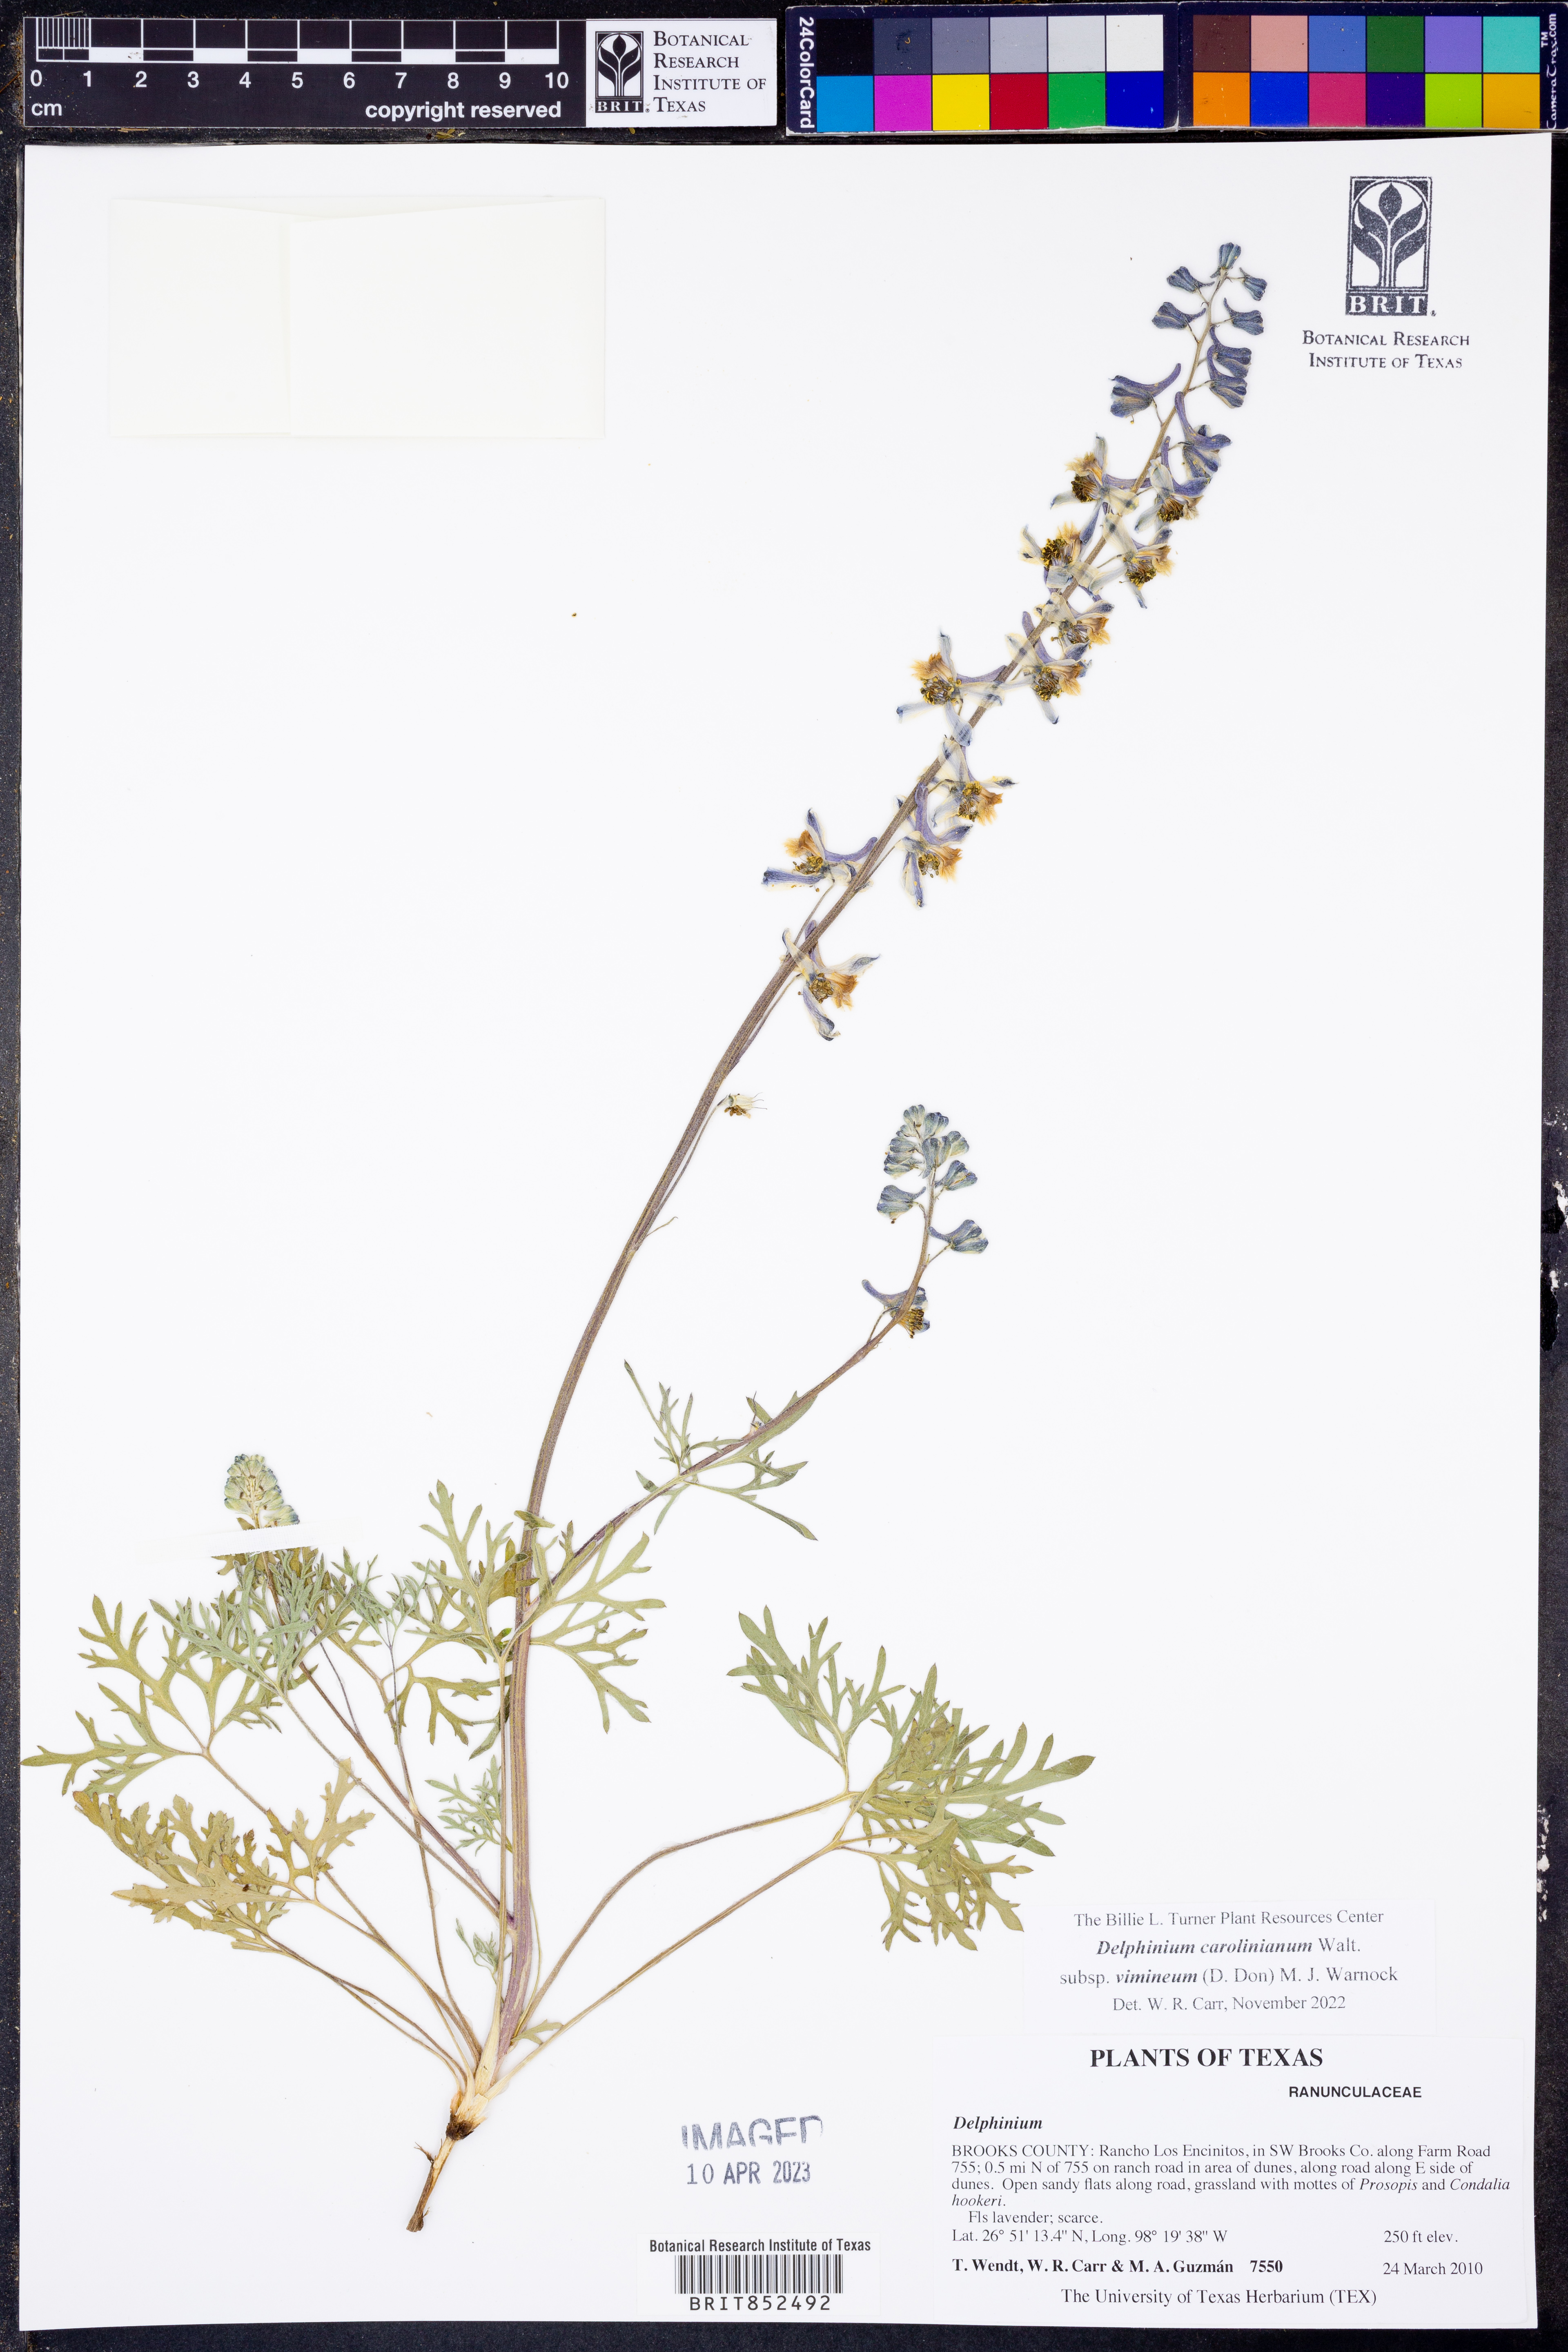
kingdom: Plantae
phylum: Tracheophyta
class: Magnoliopsida
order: Ranunculales
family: Ranunculaceae
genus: Delphinium
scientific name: Delphinium carolinianum
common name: Carolina larkspur
